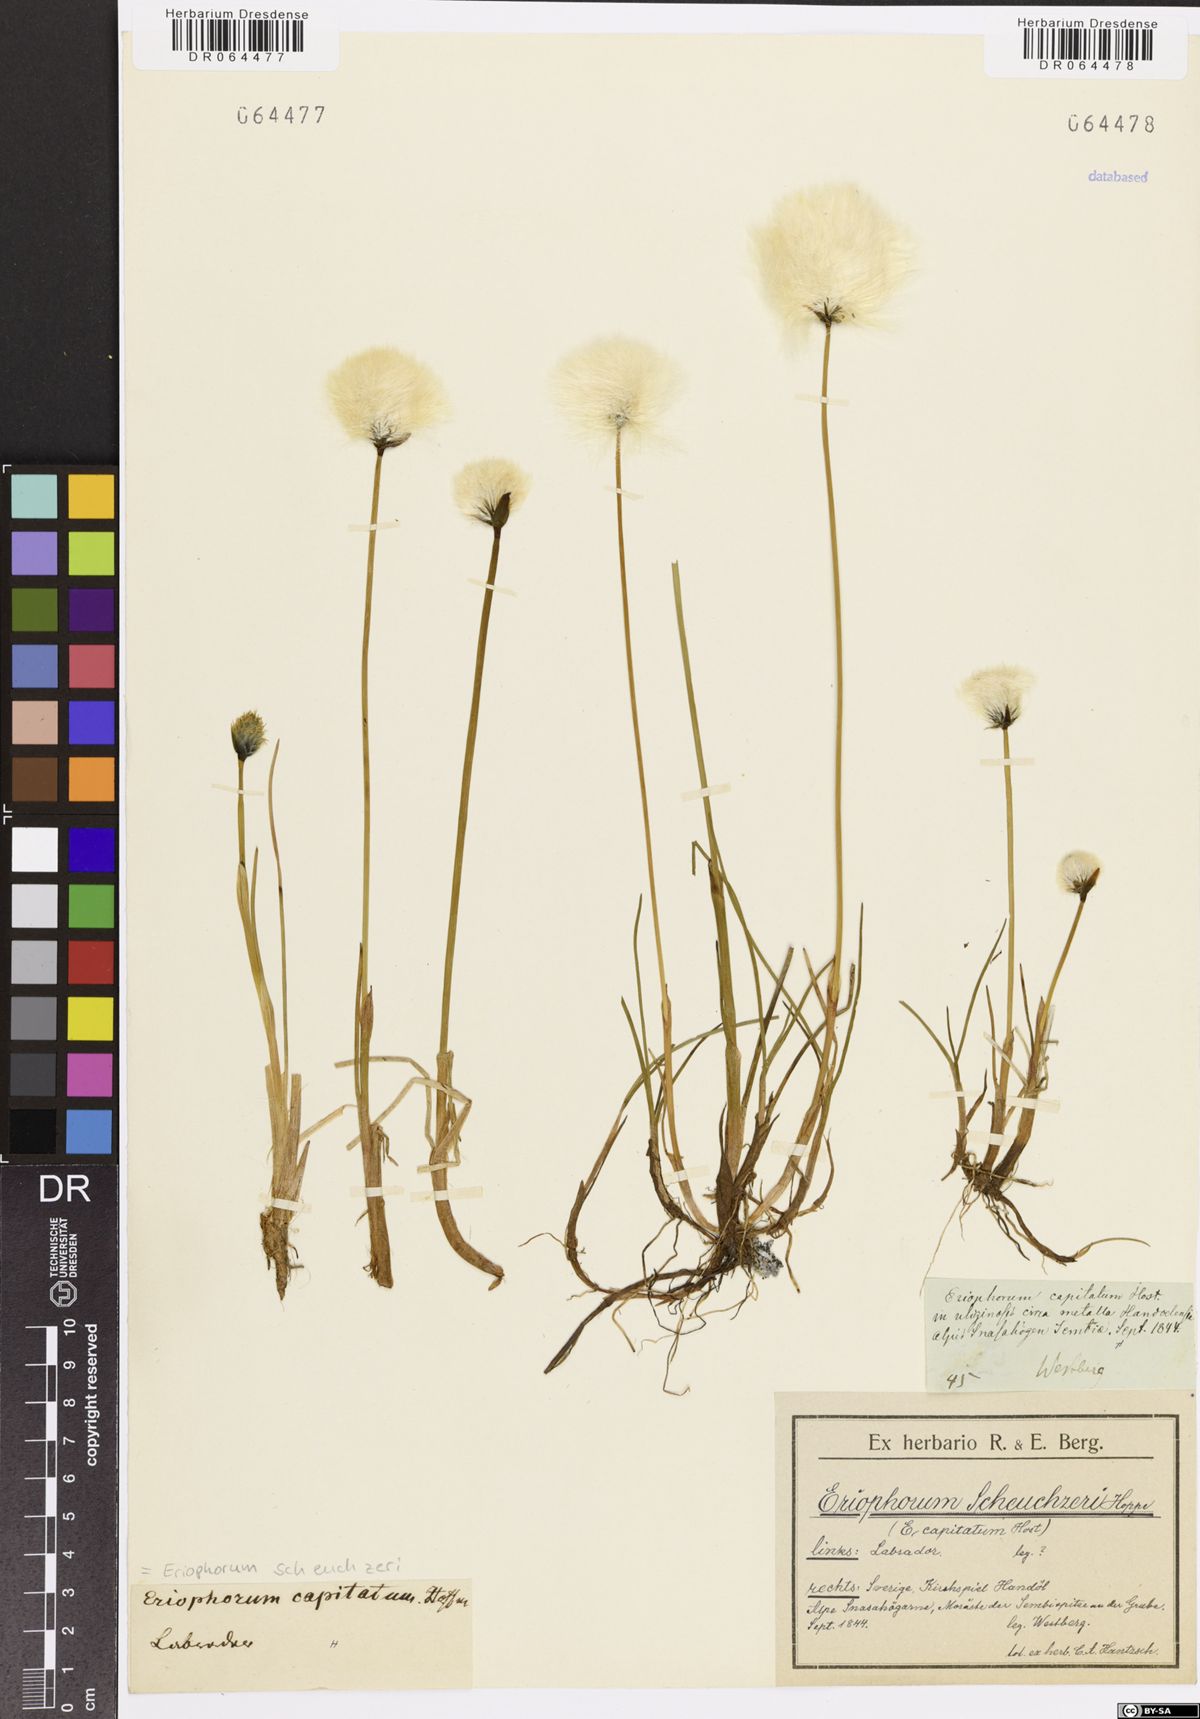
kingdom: Plantae
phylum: Tracheophyta
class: Liliopsida
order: Poales
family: Cyperaceae
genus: Eriophorum
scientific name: Eriophorum scheuchzeri
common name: Scheuchzer's cottongrass
